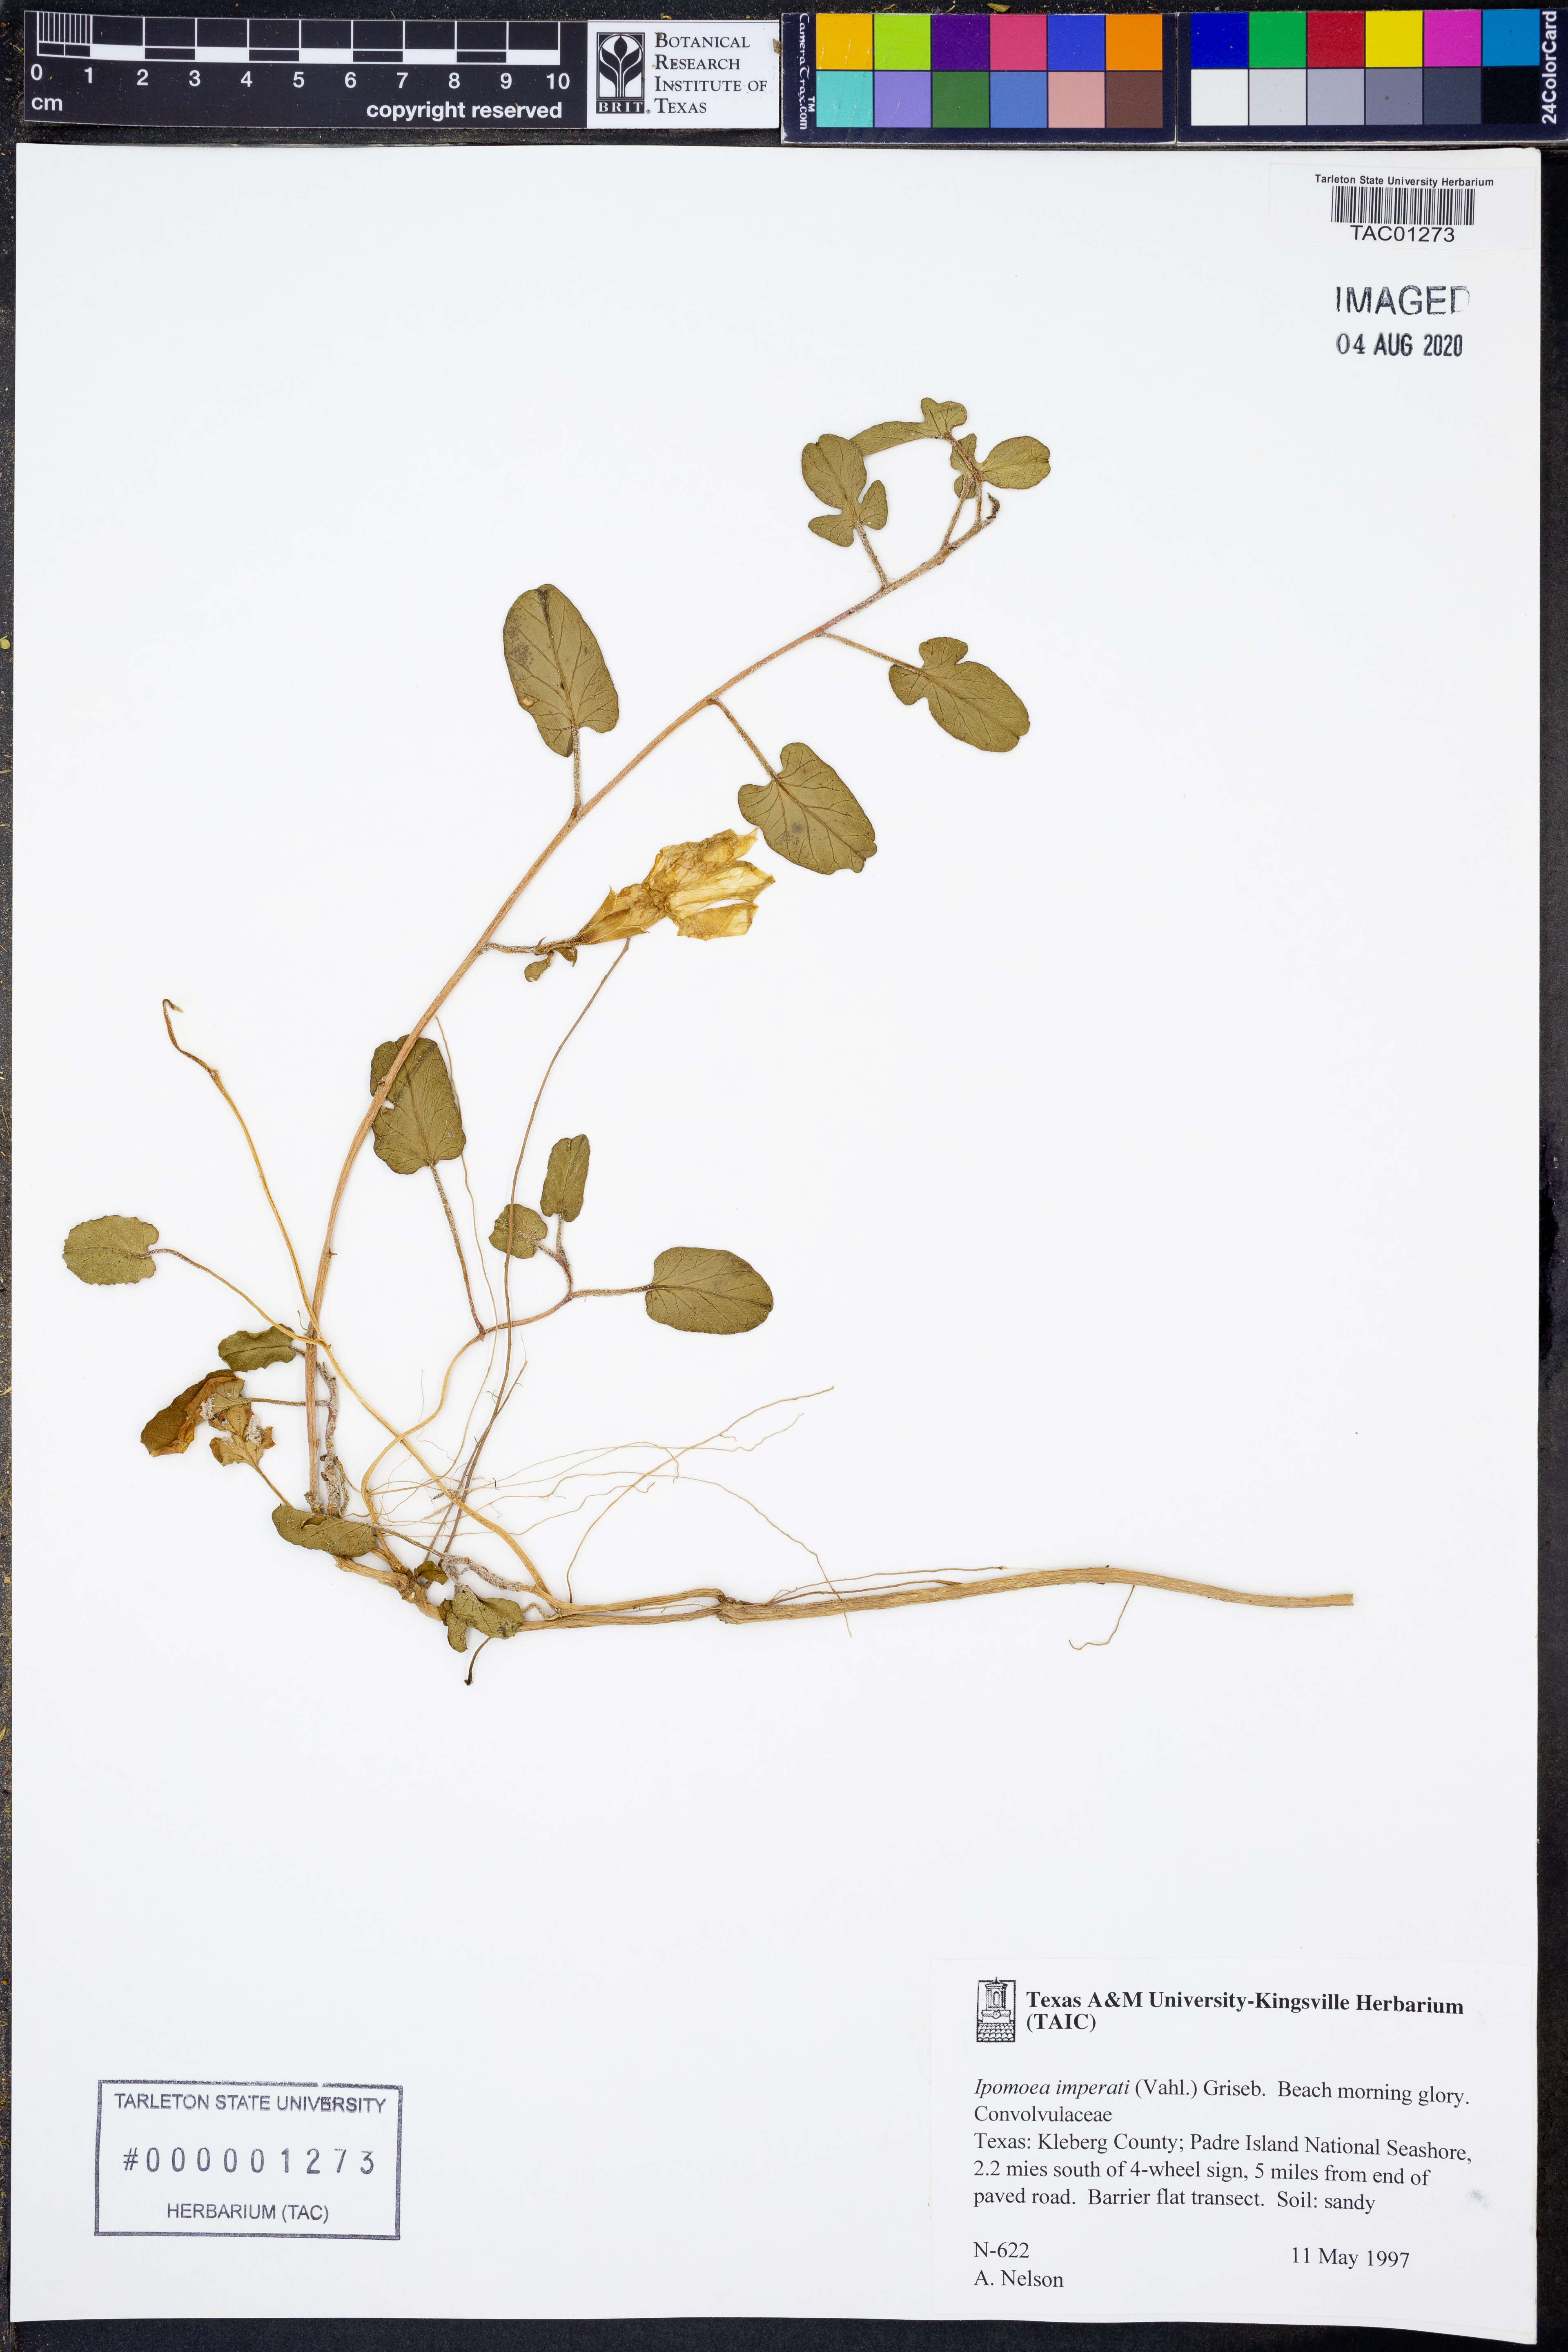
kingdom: Plantae
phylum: Tracheophyta
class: Magnoliopsida
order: Solanales
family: Convolvulaceae
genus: Ipomoea
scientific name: Ipomoea imperati
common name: Fiddle-leaf morning-glory
